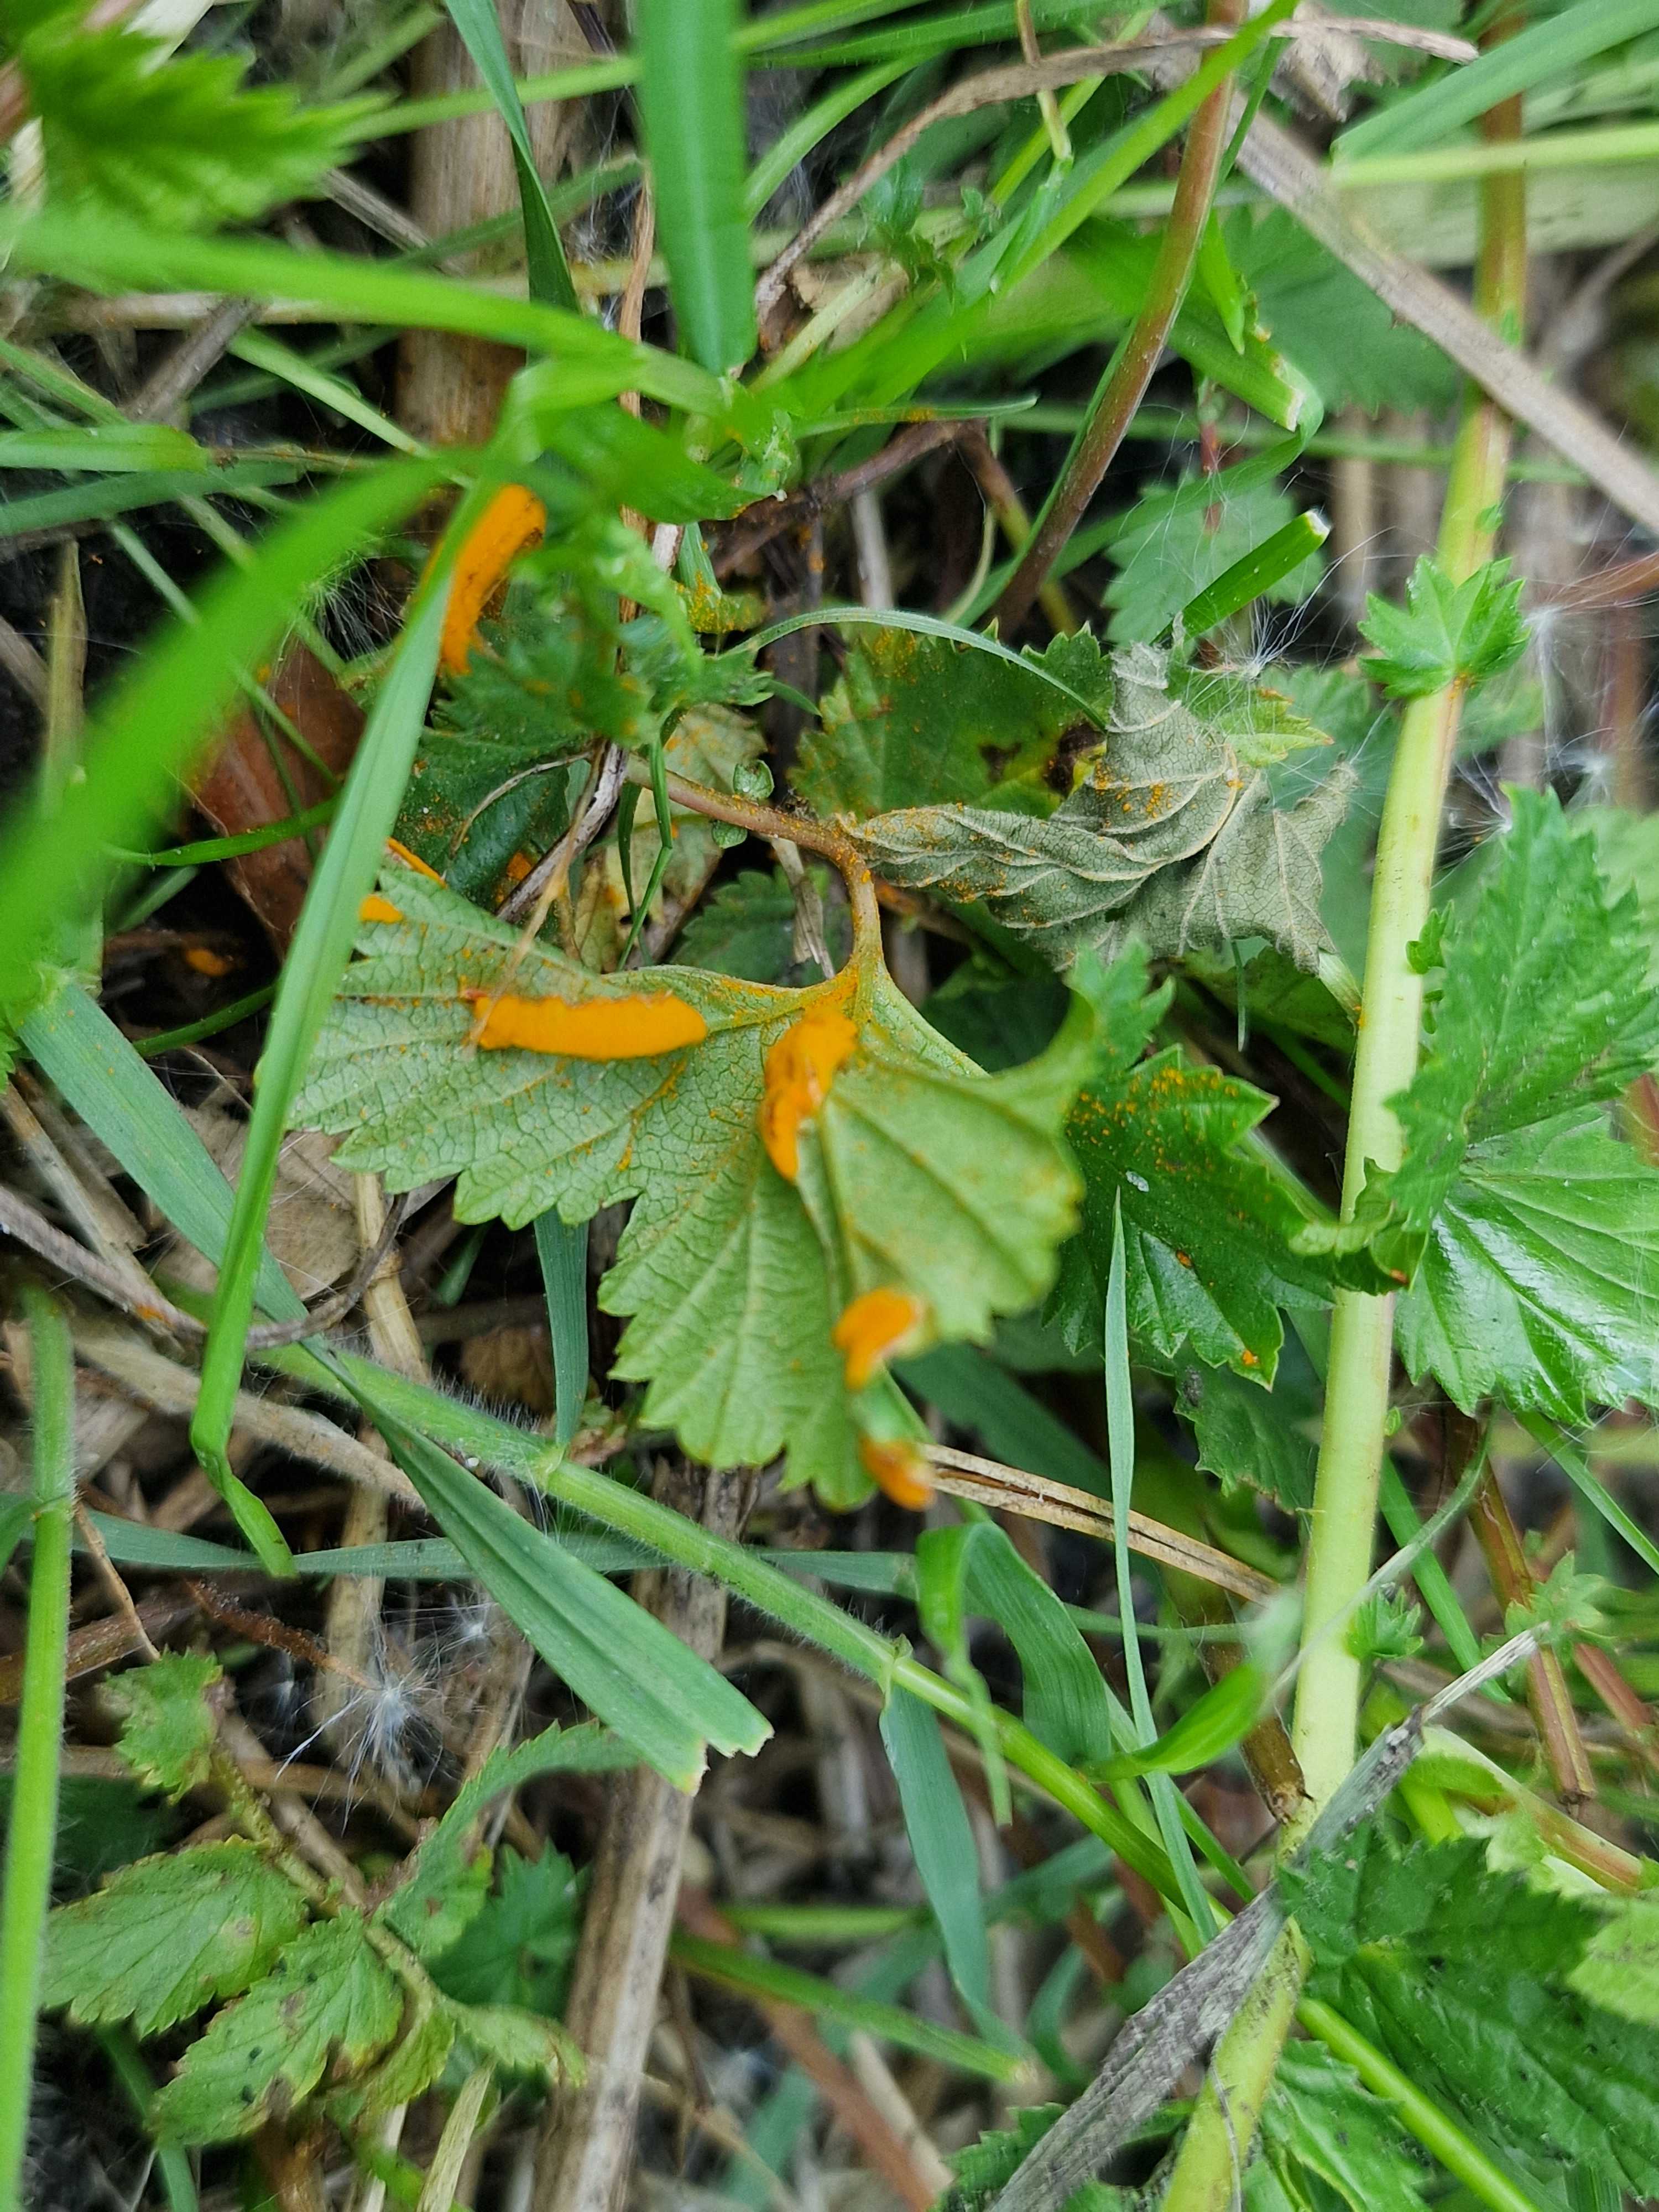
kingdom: Fungi
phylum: Basidiomycota
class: Pucciniomycetes
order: Pucciniales
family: Raveneliaceae
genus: Triphragmium
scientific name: Triphragmium ulmariae
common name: almindelig mjødurtrust
